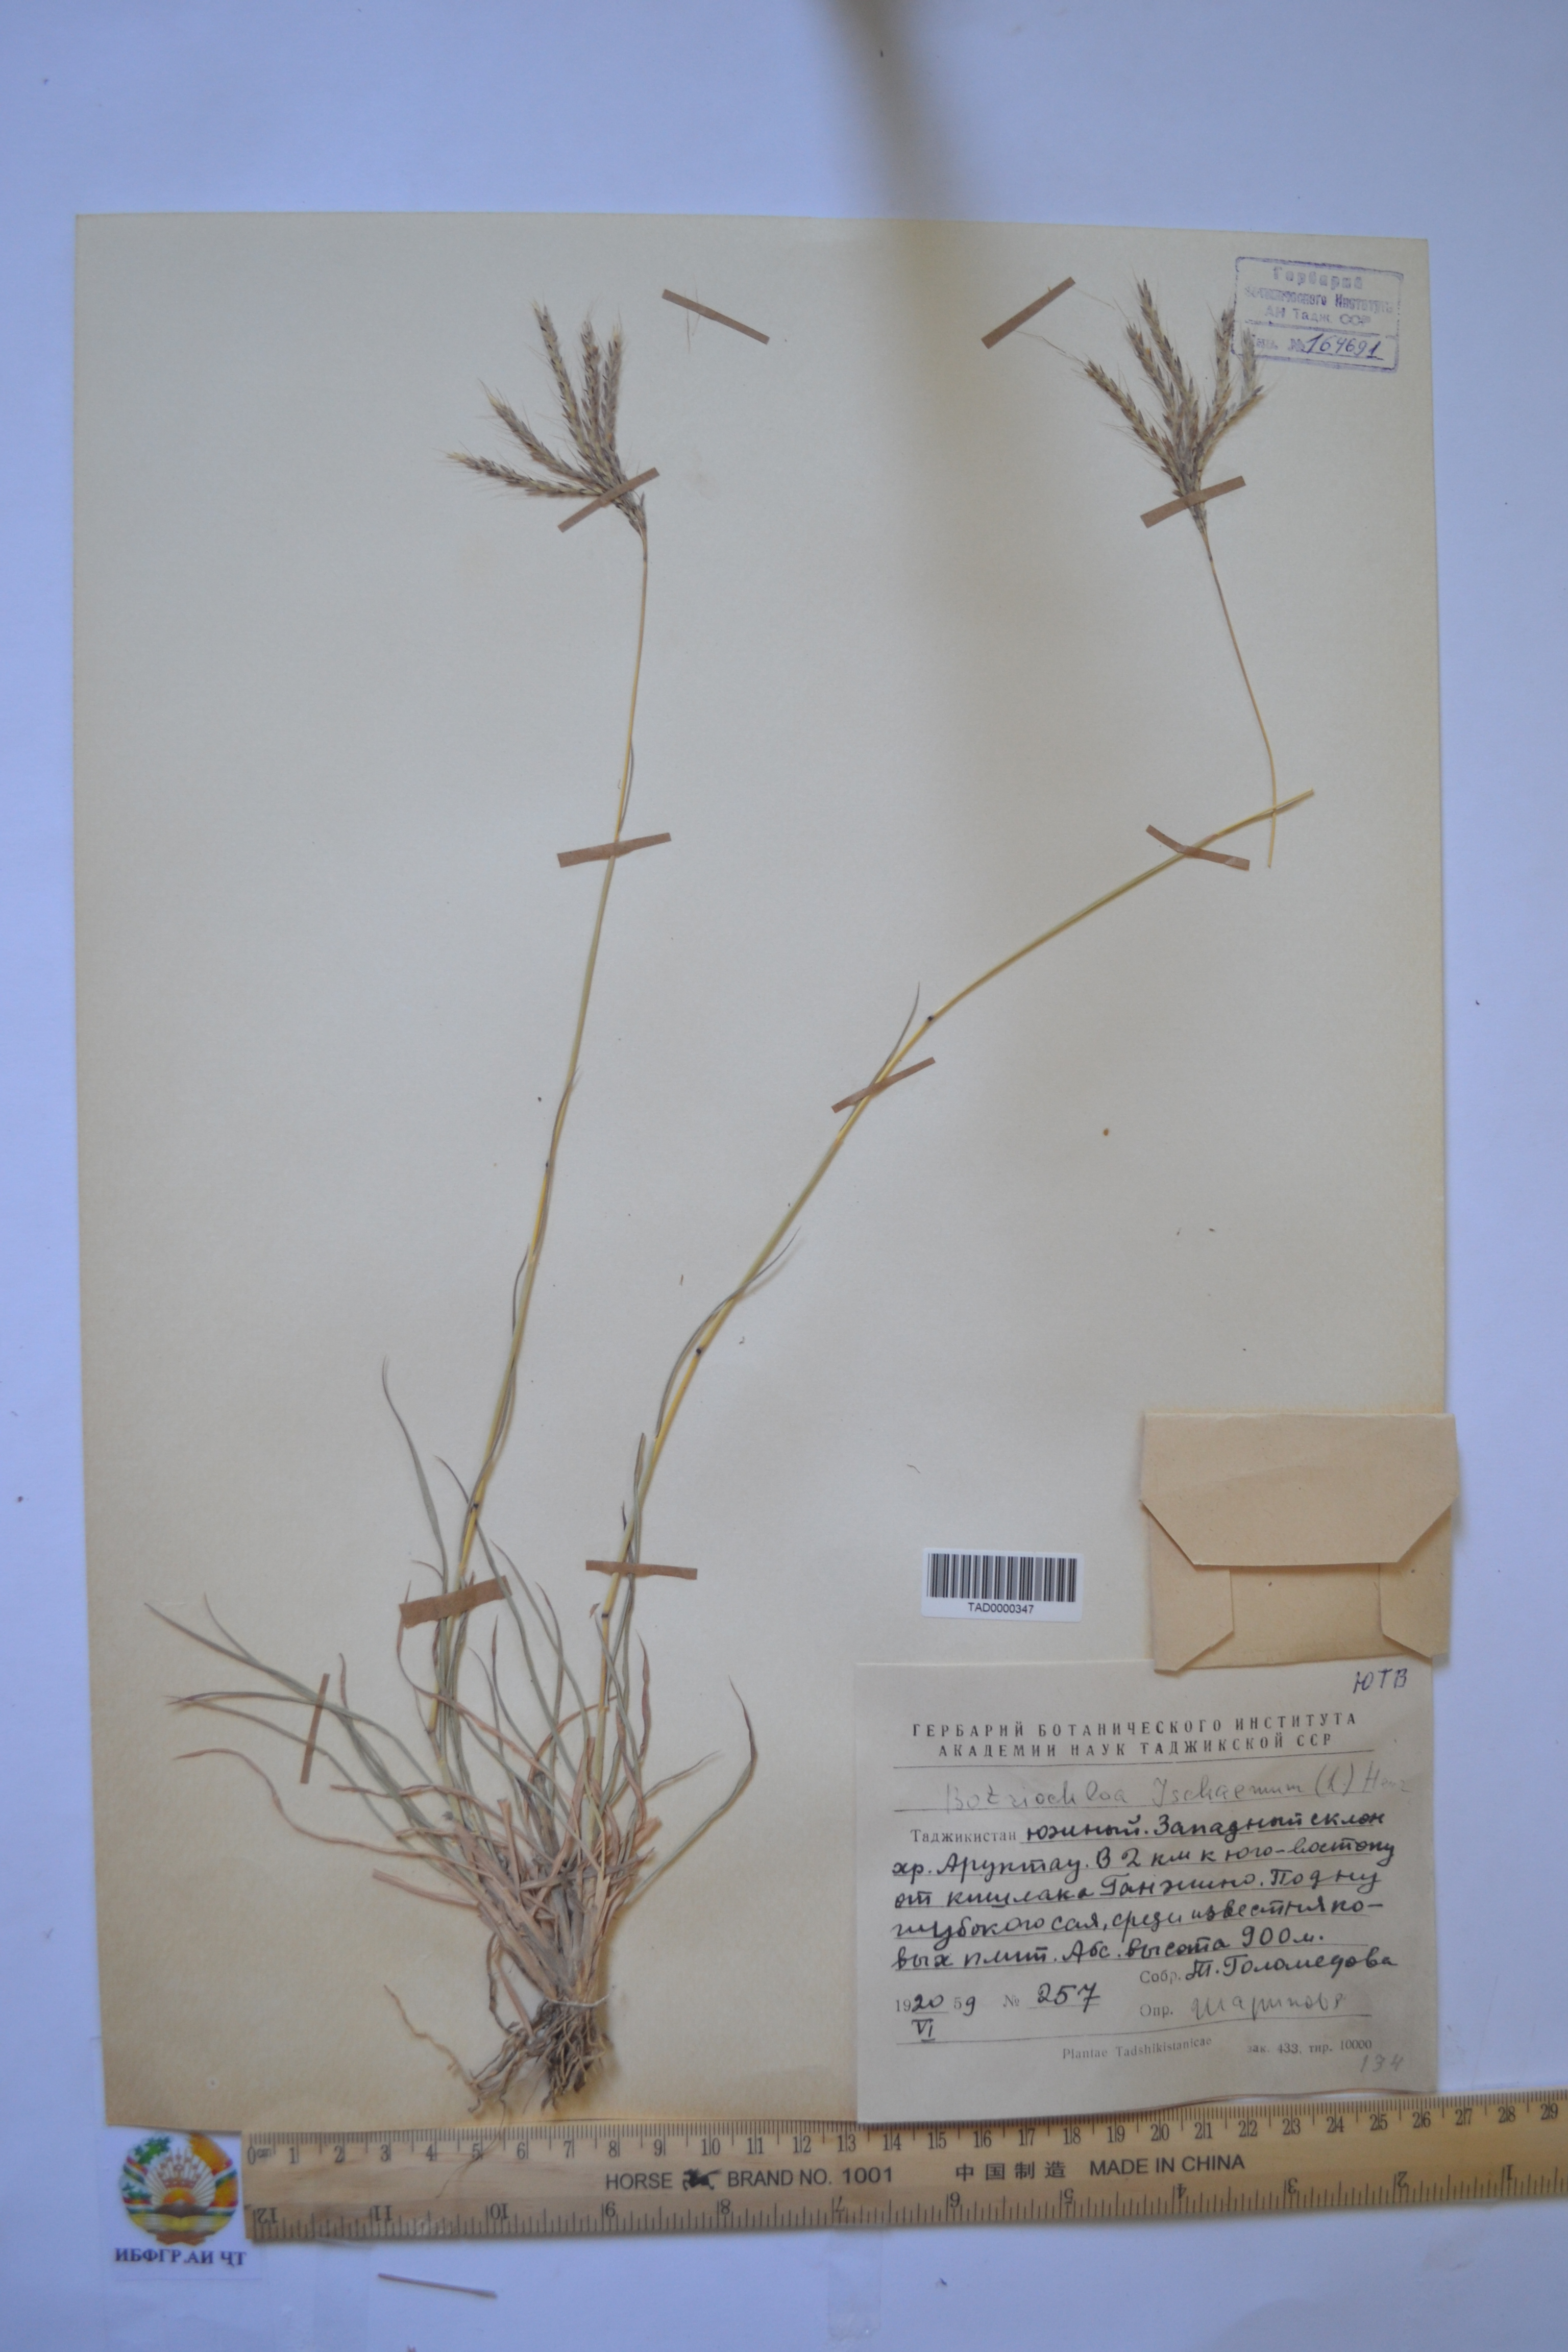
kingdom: Plantae
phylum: Tracheophyta
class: Liliopsida
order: Poales
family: Poaceae
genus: Andropogon
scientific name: Andropogon ischaemum
